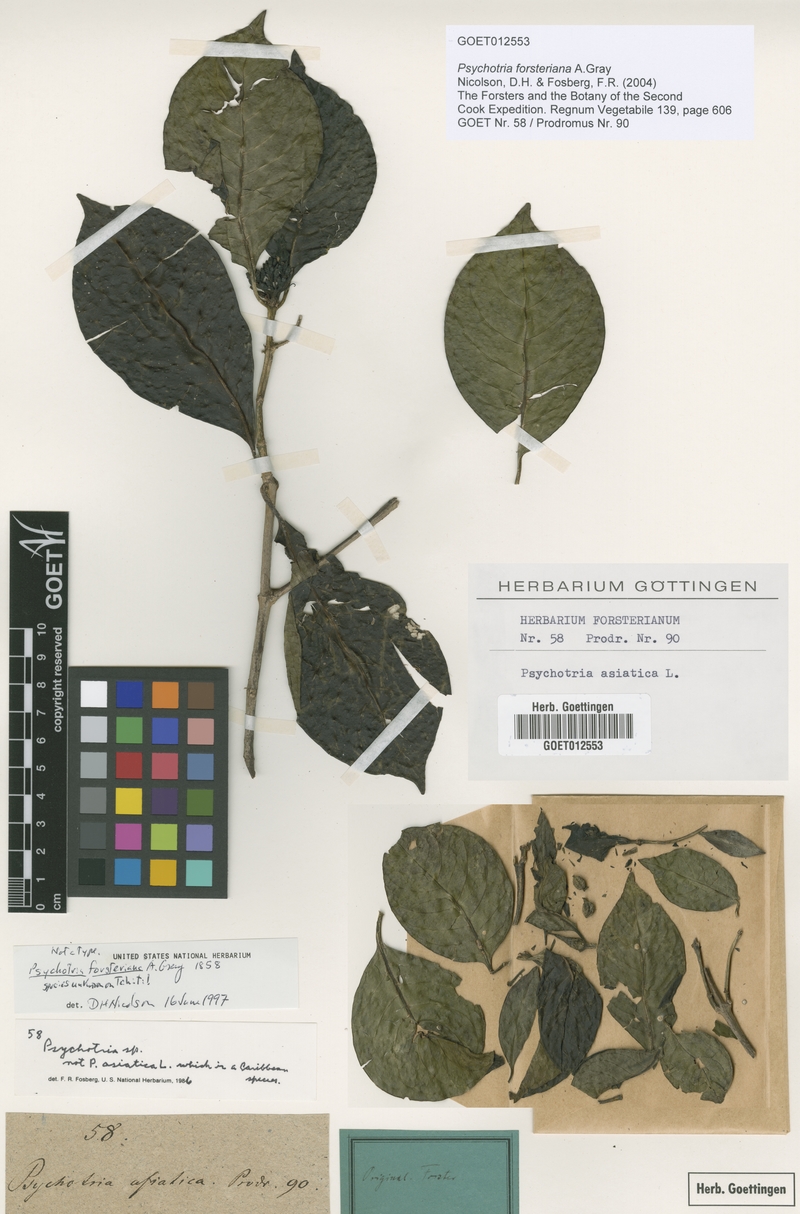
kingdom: Plantae
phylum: Tracheophyta
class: Magnoliopsida
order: Gentianales
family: Rubiaceae
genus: Eumachia
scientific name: Eumachia forsteriana
